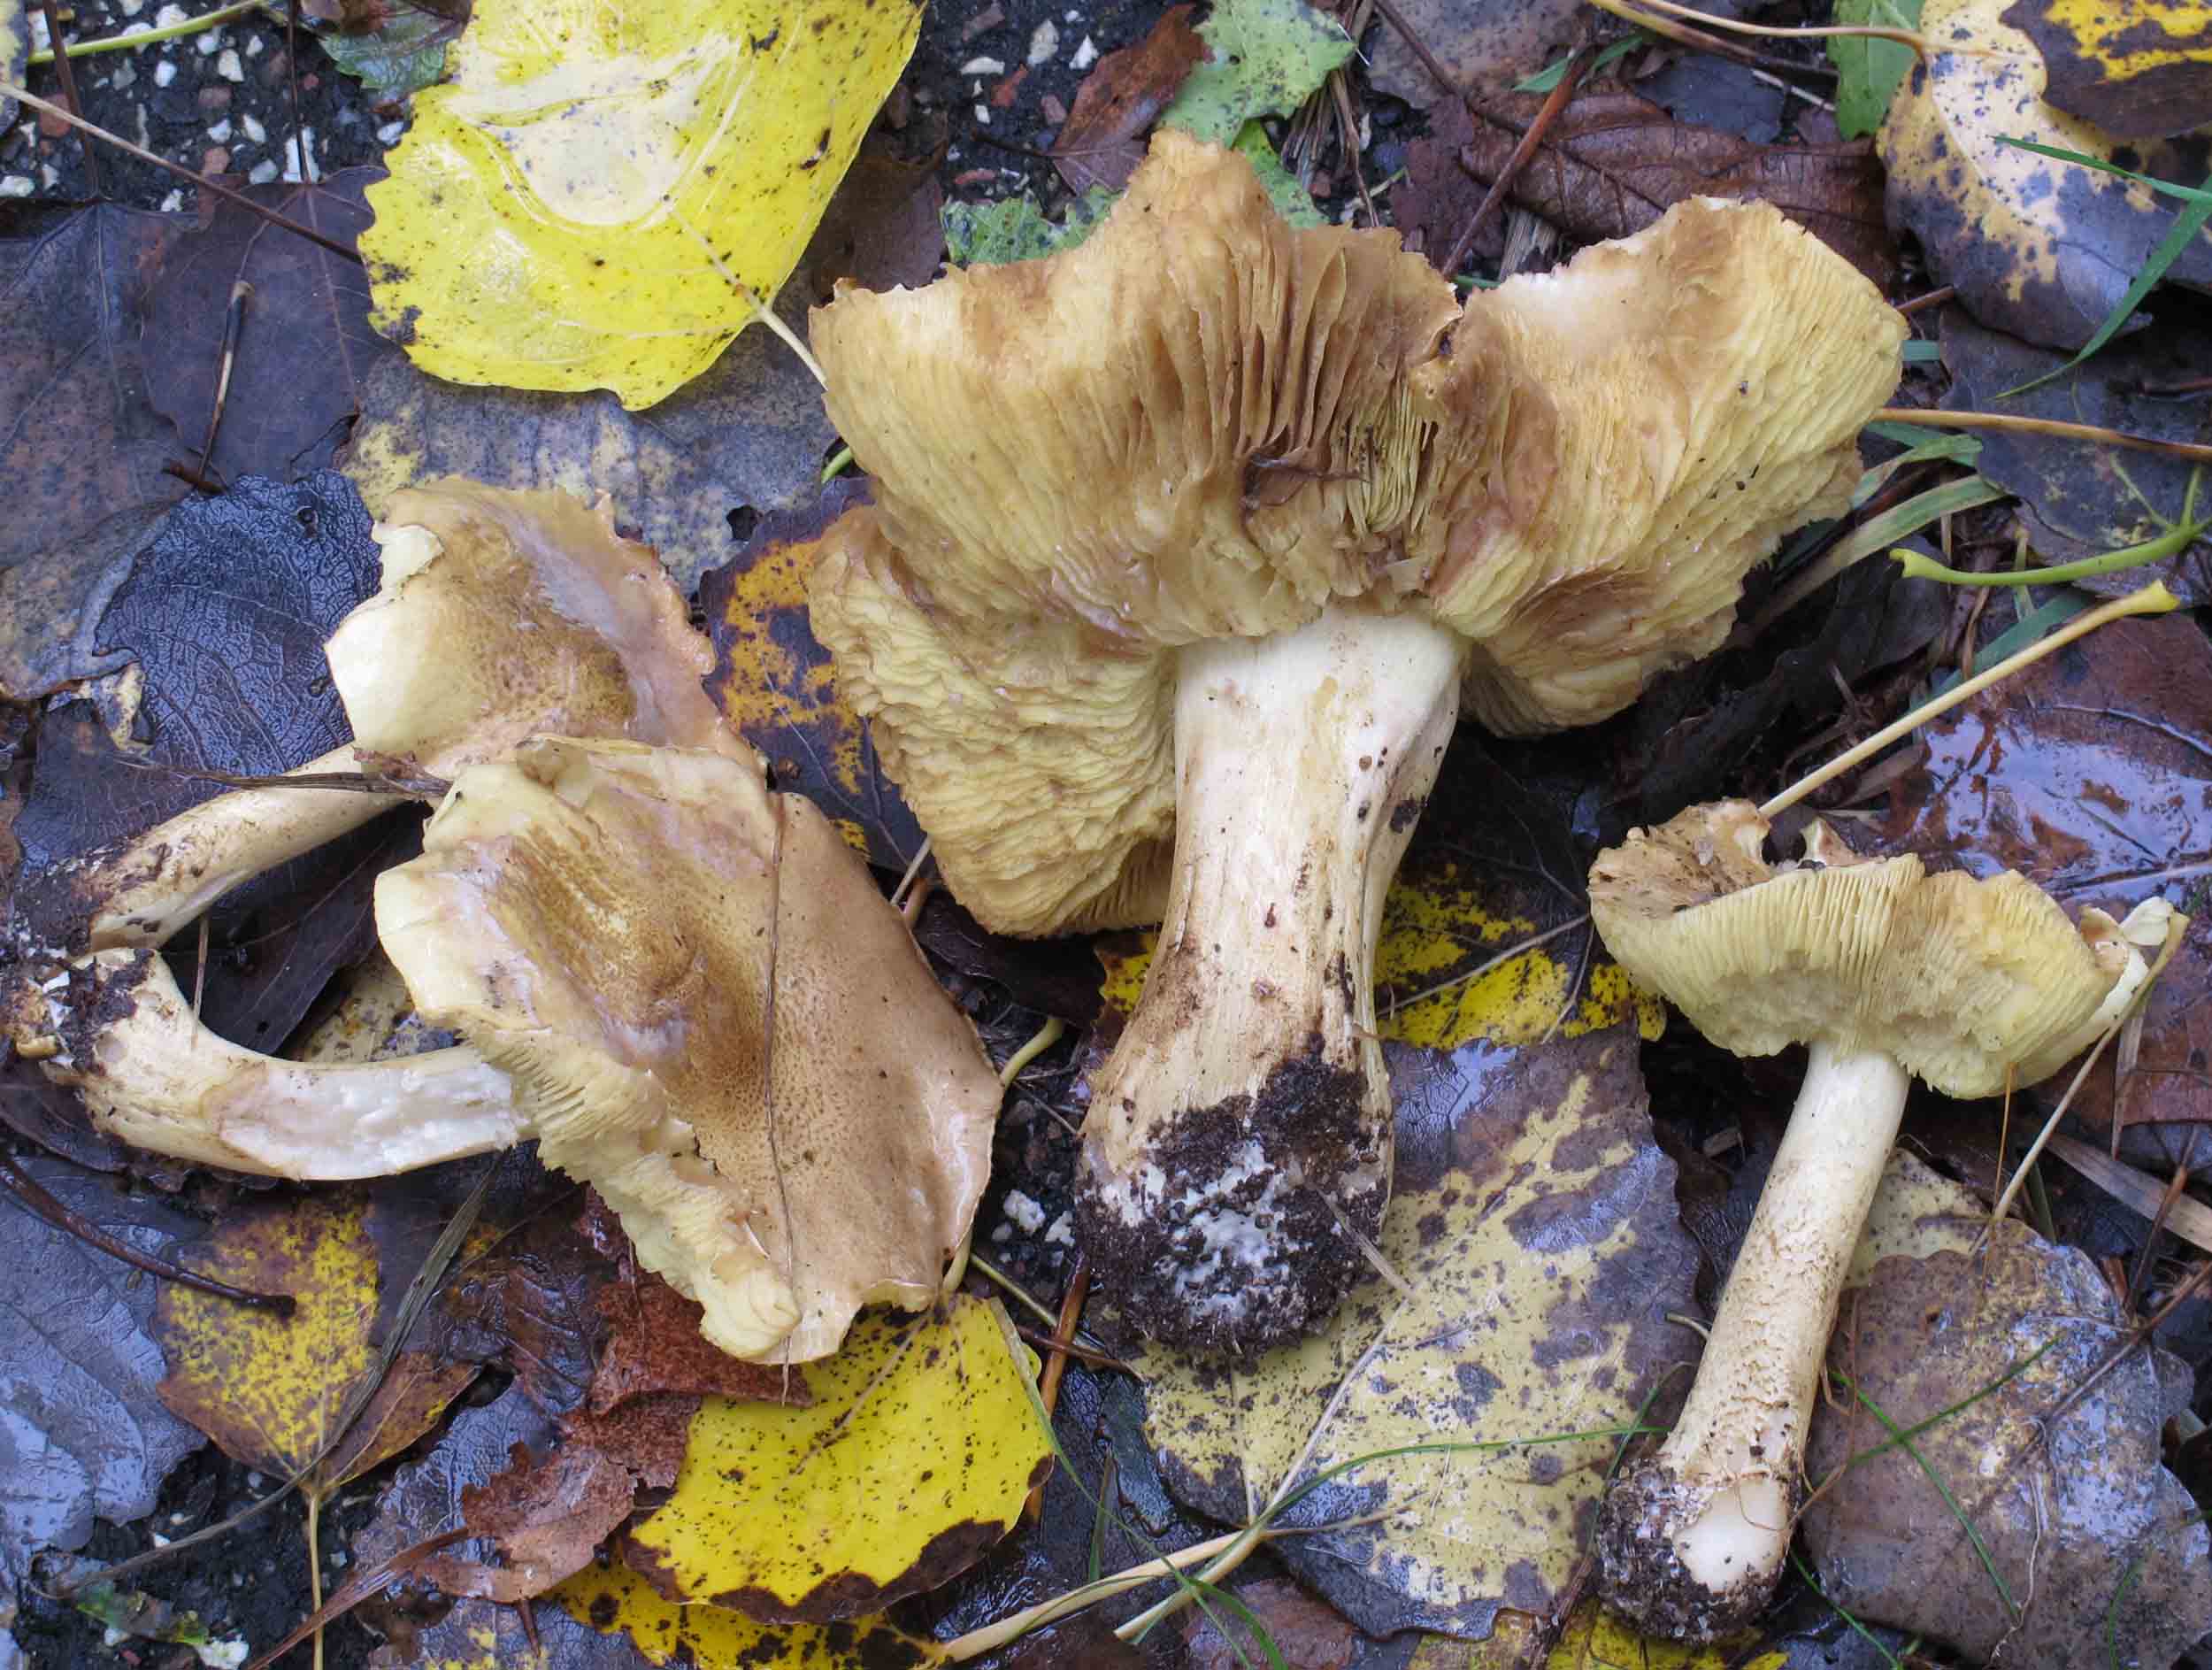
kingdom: Fungi
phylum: Basidiomycota
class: Agaricomycetes
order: Agaricales
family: Tricholomataceae
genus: Tricholoma
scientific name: Tricholoma frondosae
